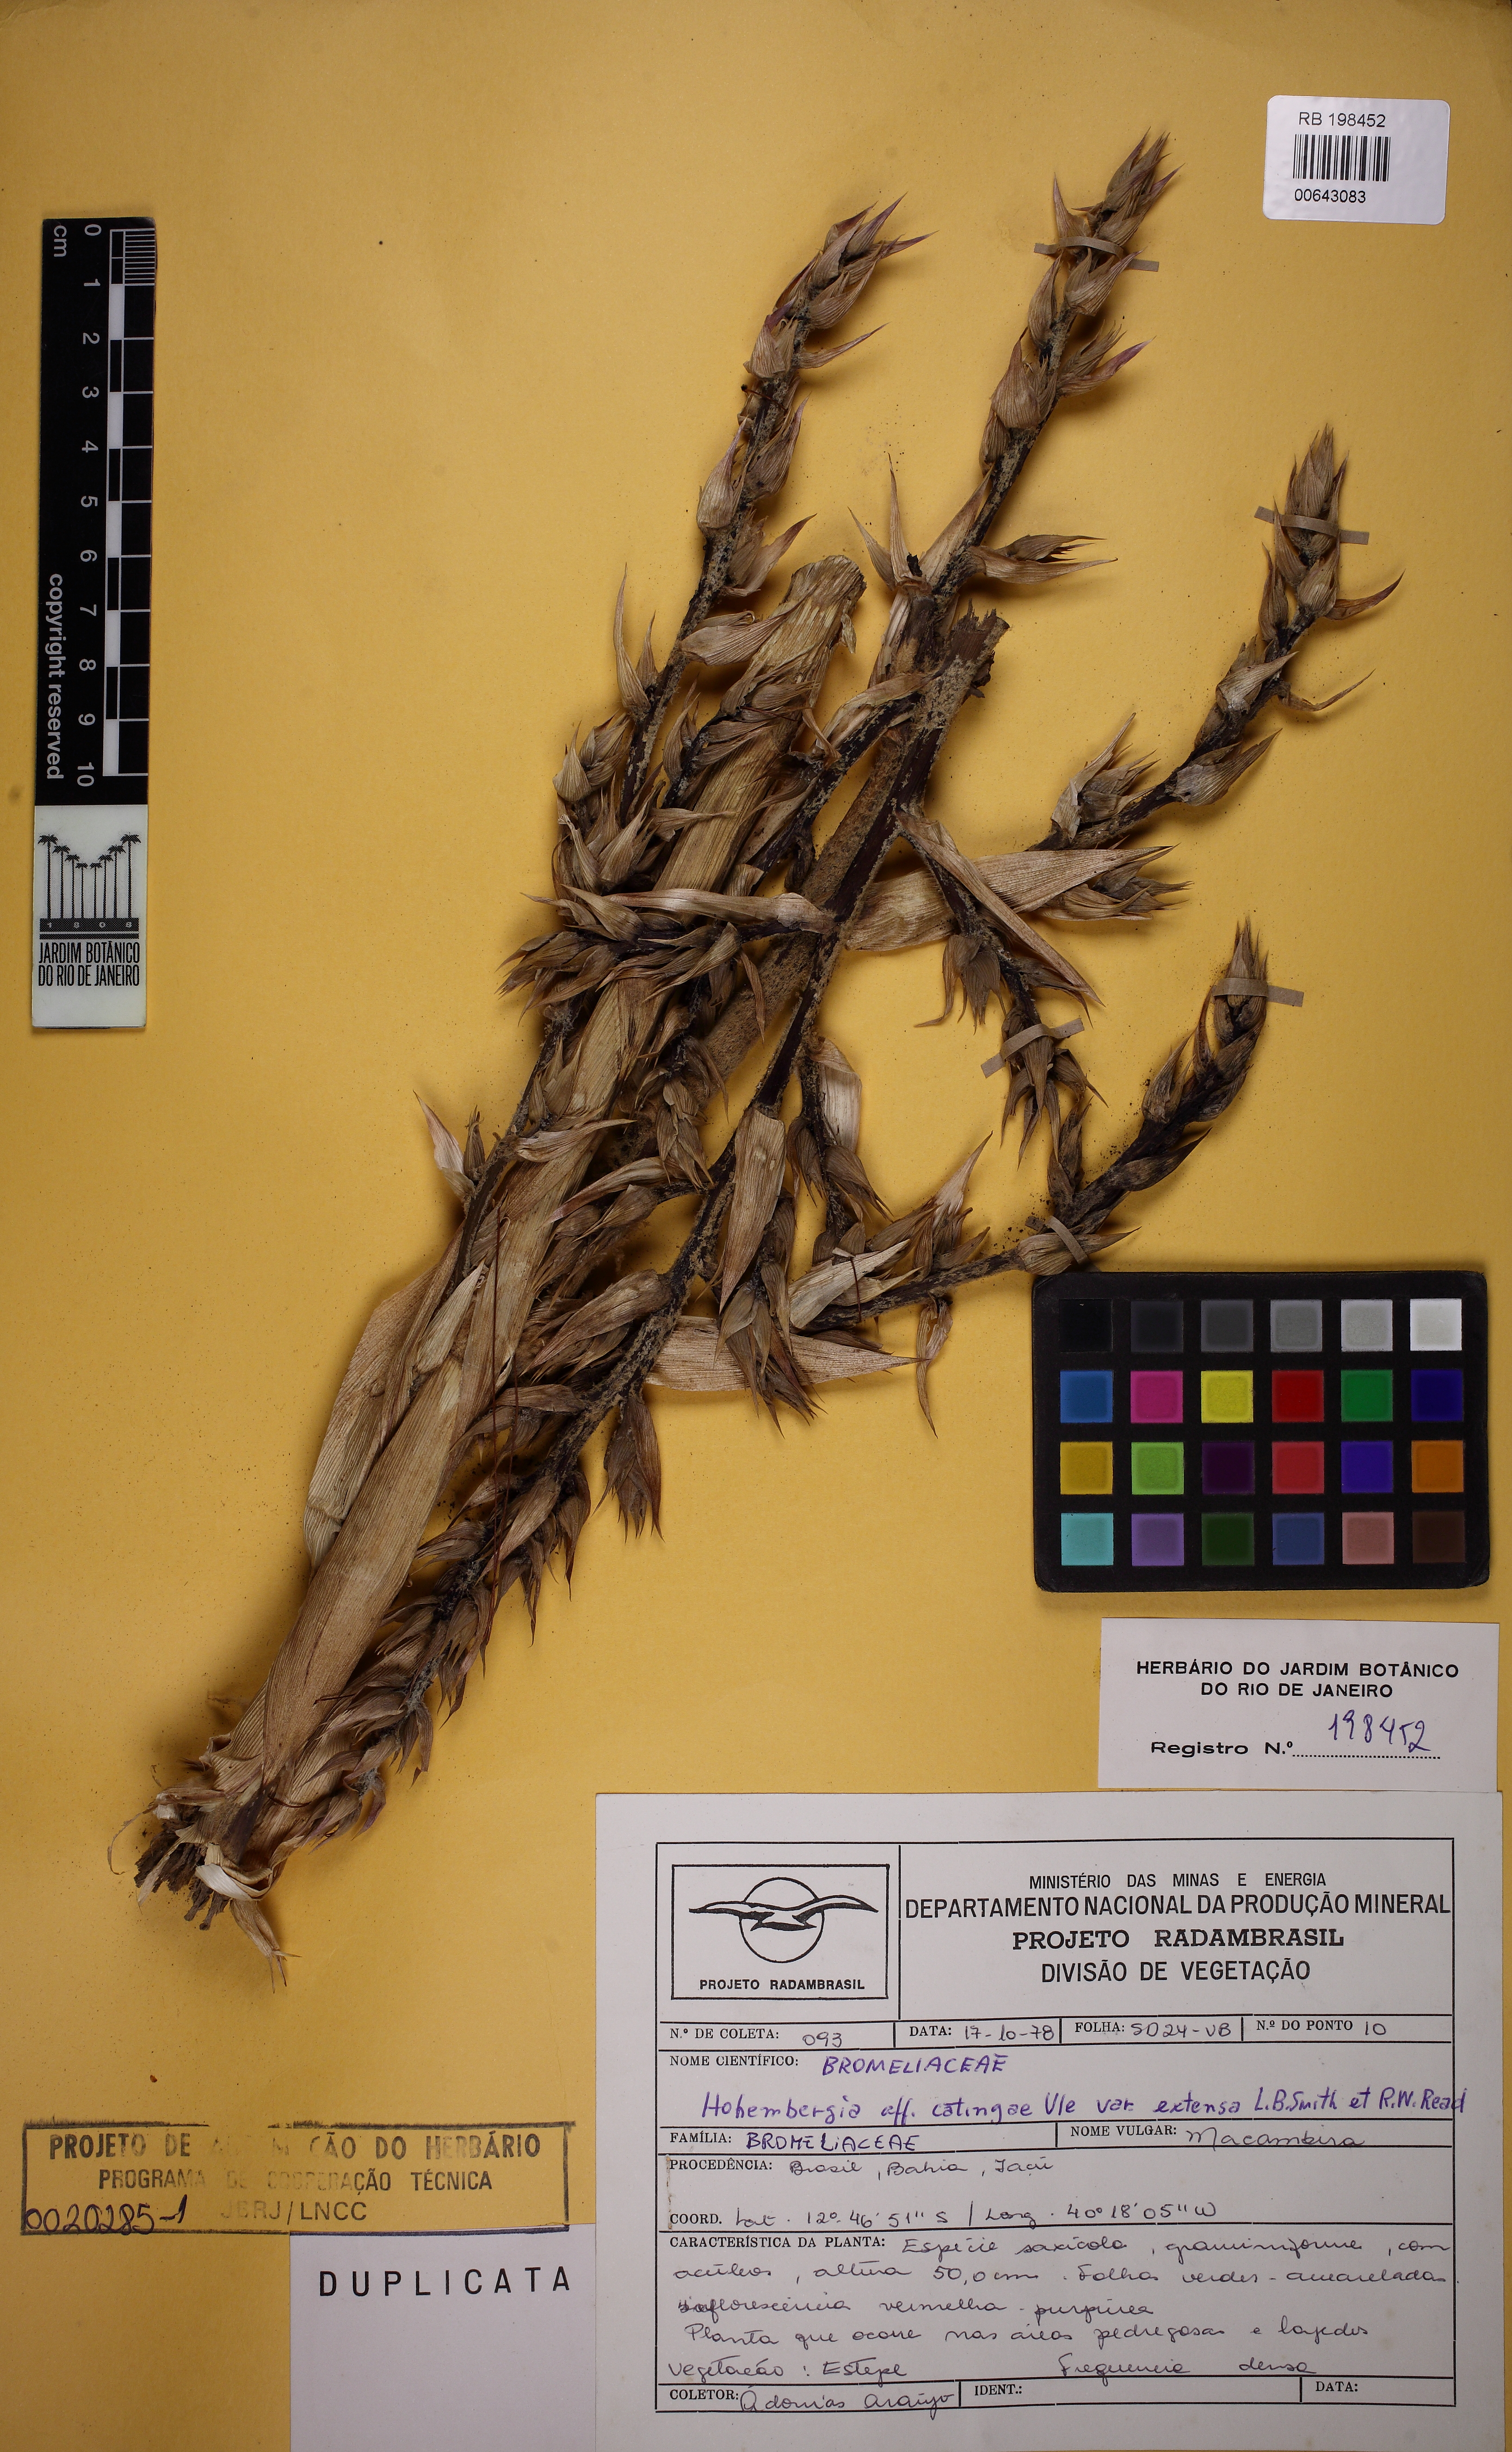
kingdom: Plantae
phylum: Tracheophyta
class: Liliopsida
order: Poales
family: Bromeliaceae
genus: Hohenbergia
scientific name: Hohenbergia catingae
